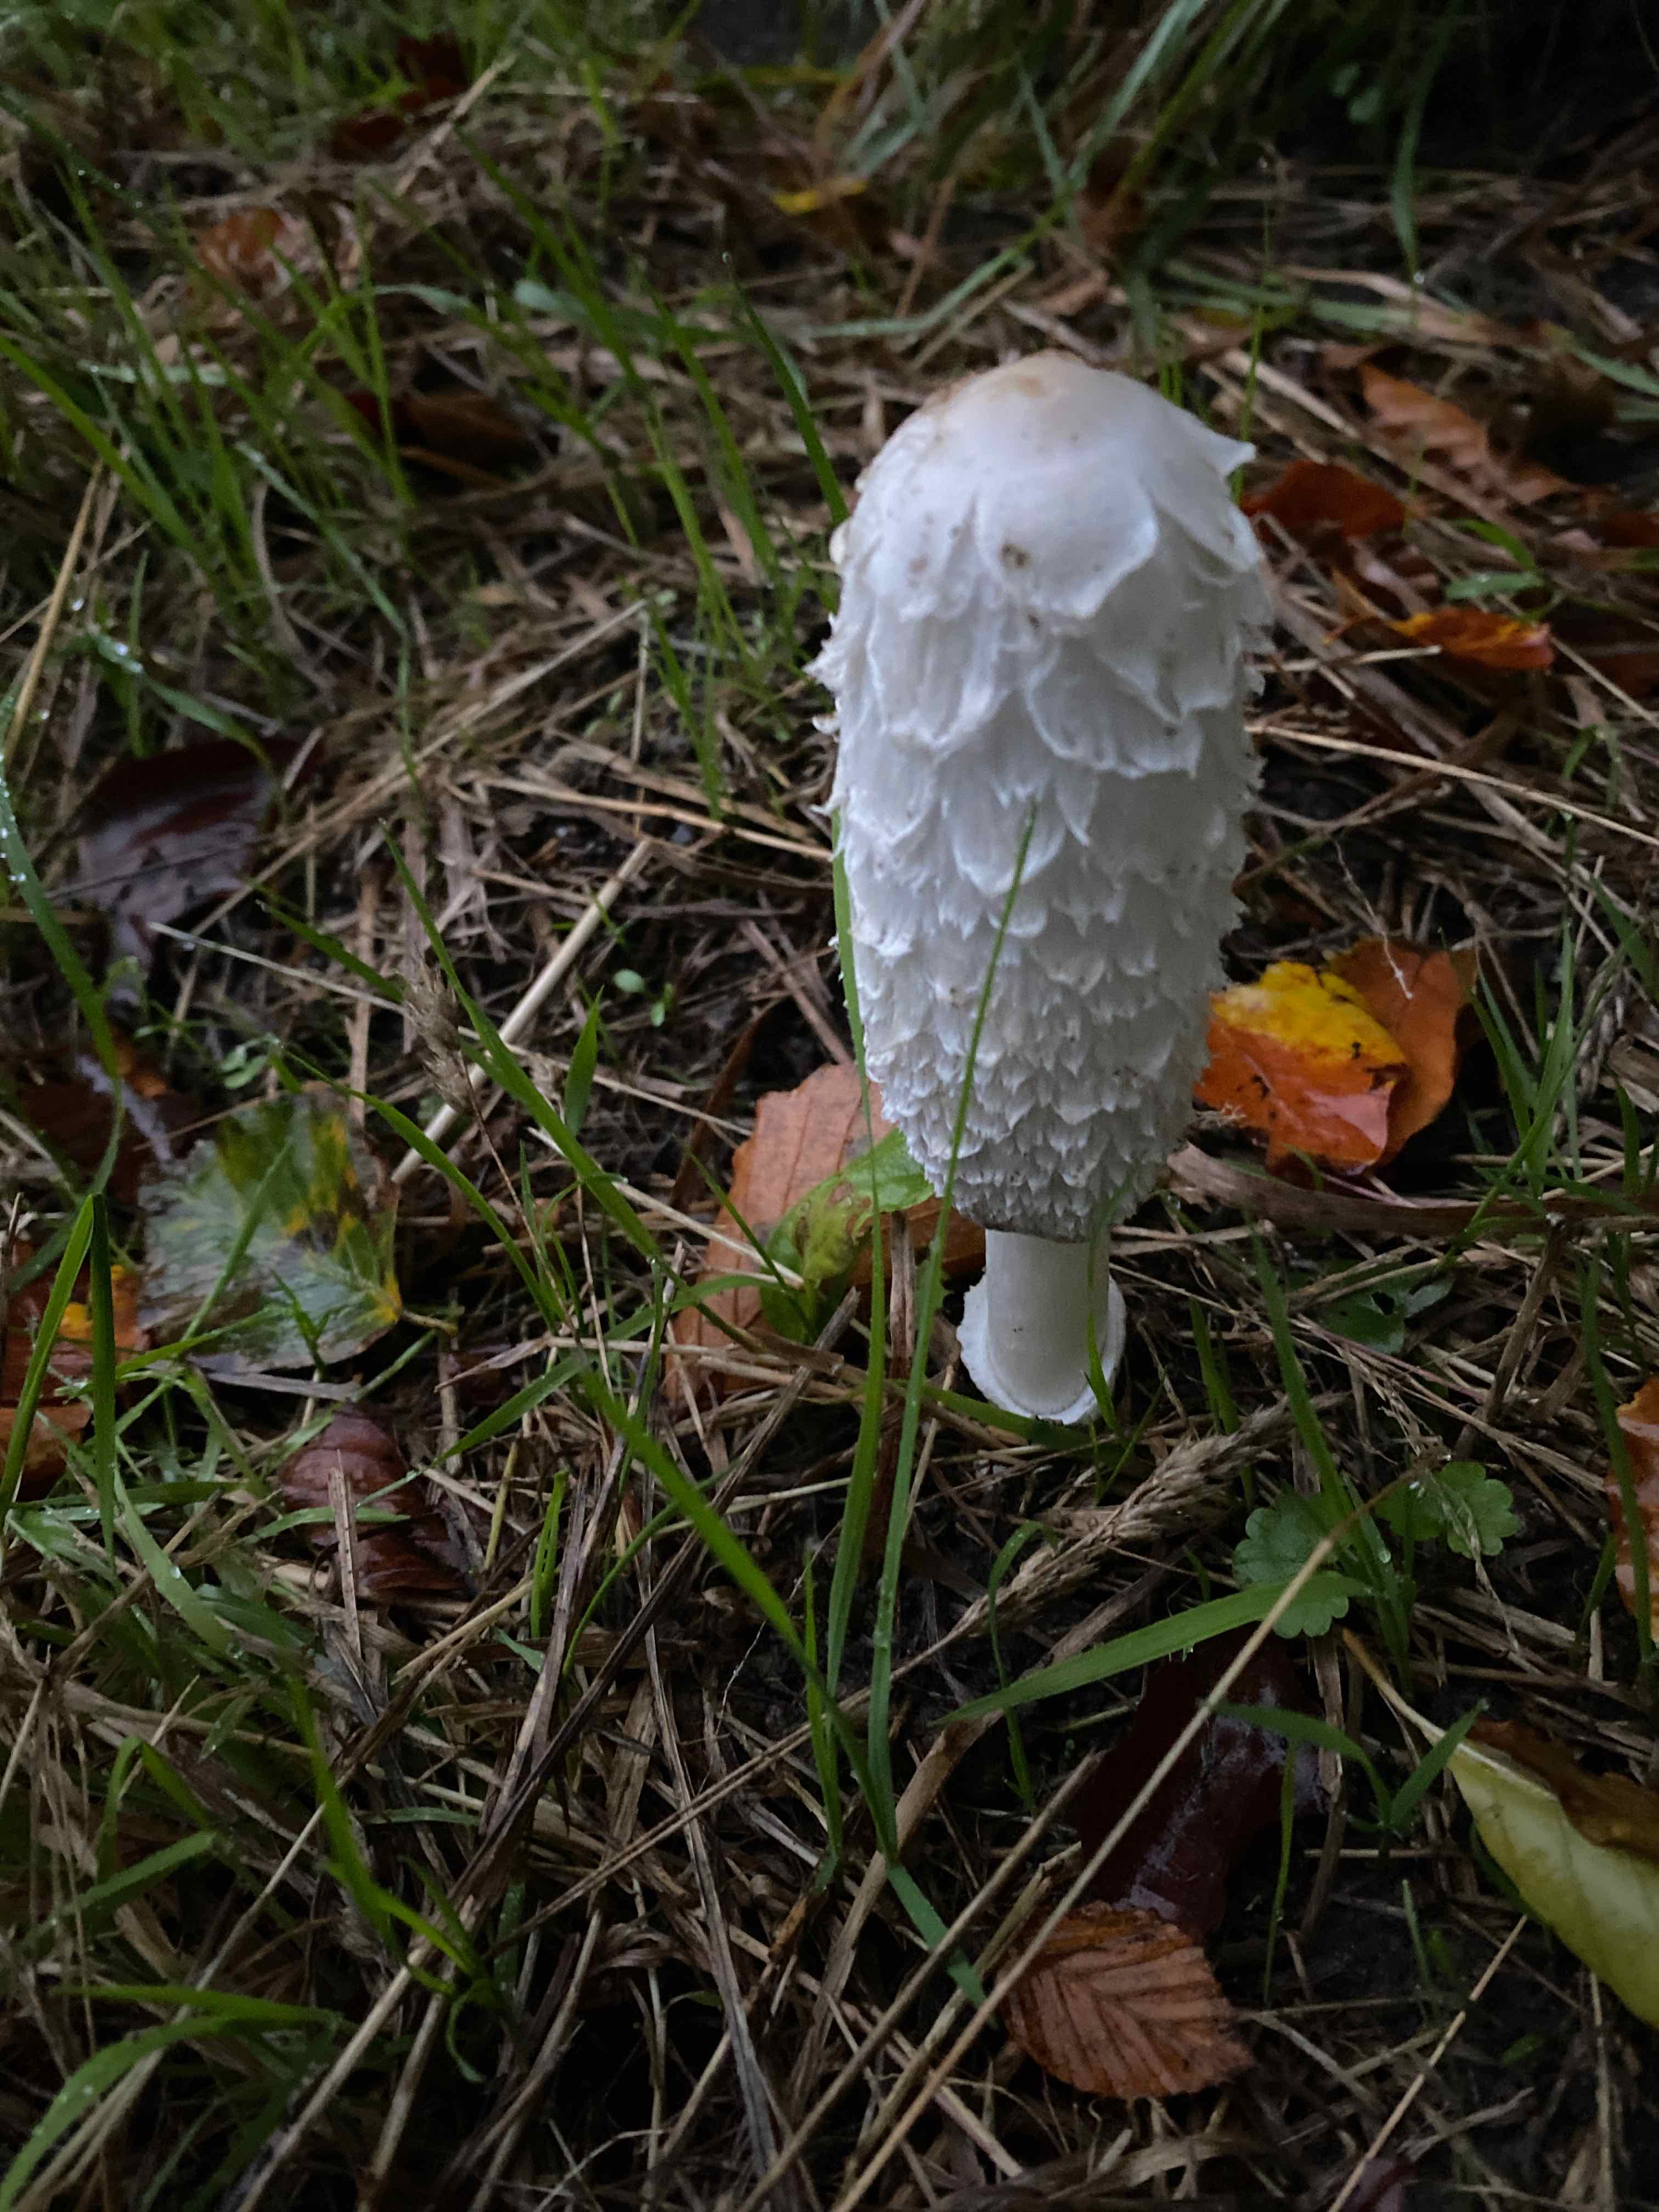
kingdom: Fungi
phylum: Basidiomycota
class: Agaricomycetes
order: Agaricales
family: Agaricaceae
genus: Coprinus
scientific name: Coprinus comatus
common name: stor parykhat
